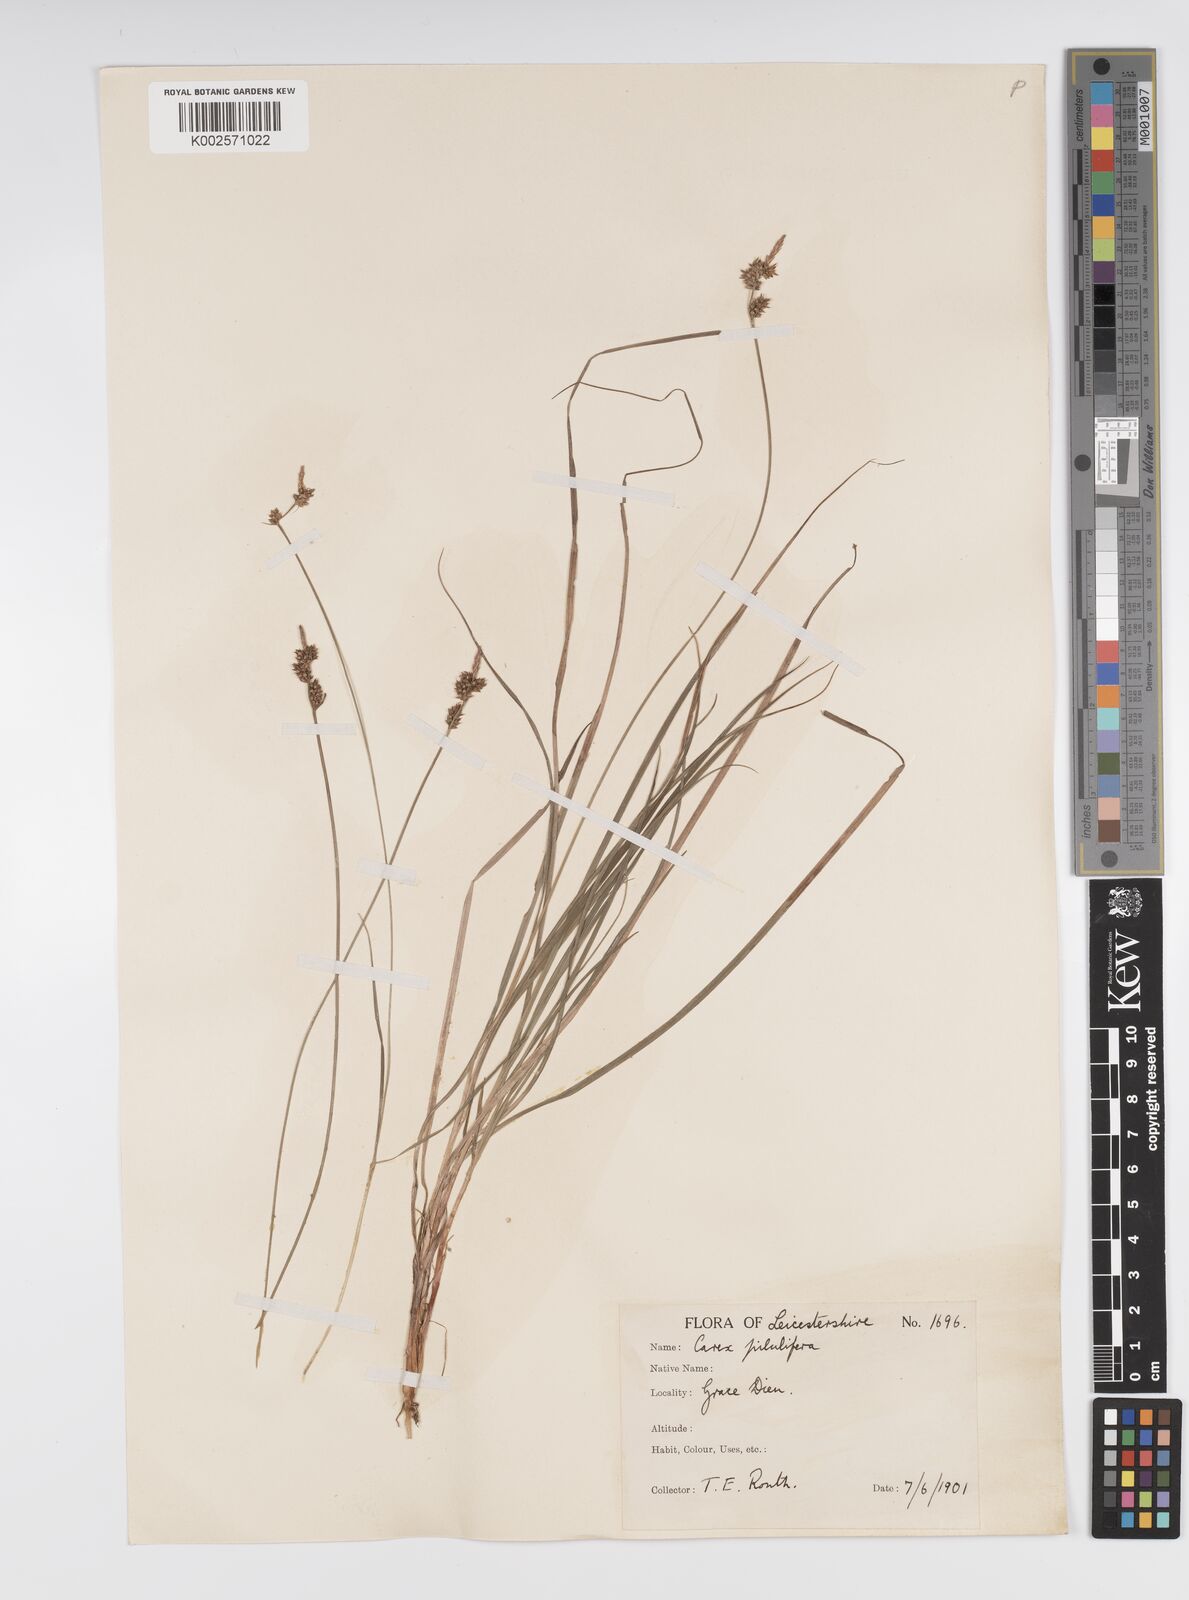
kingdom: Plantae
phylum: Tracheophyta
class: Liliopsida
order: Poales
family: Cyperaceae
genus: Carex
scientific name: Carex praecox
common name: Early sedge
